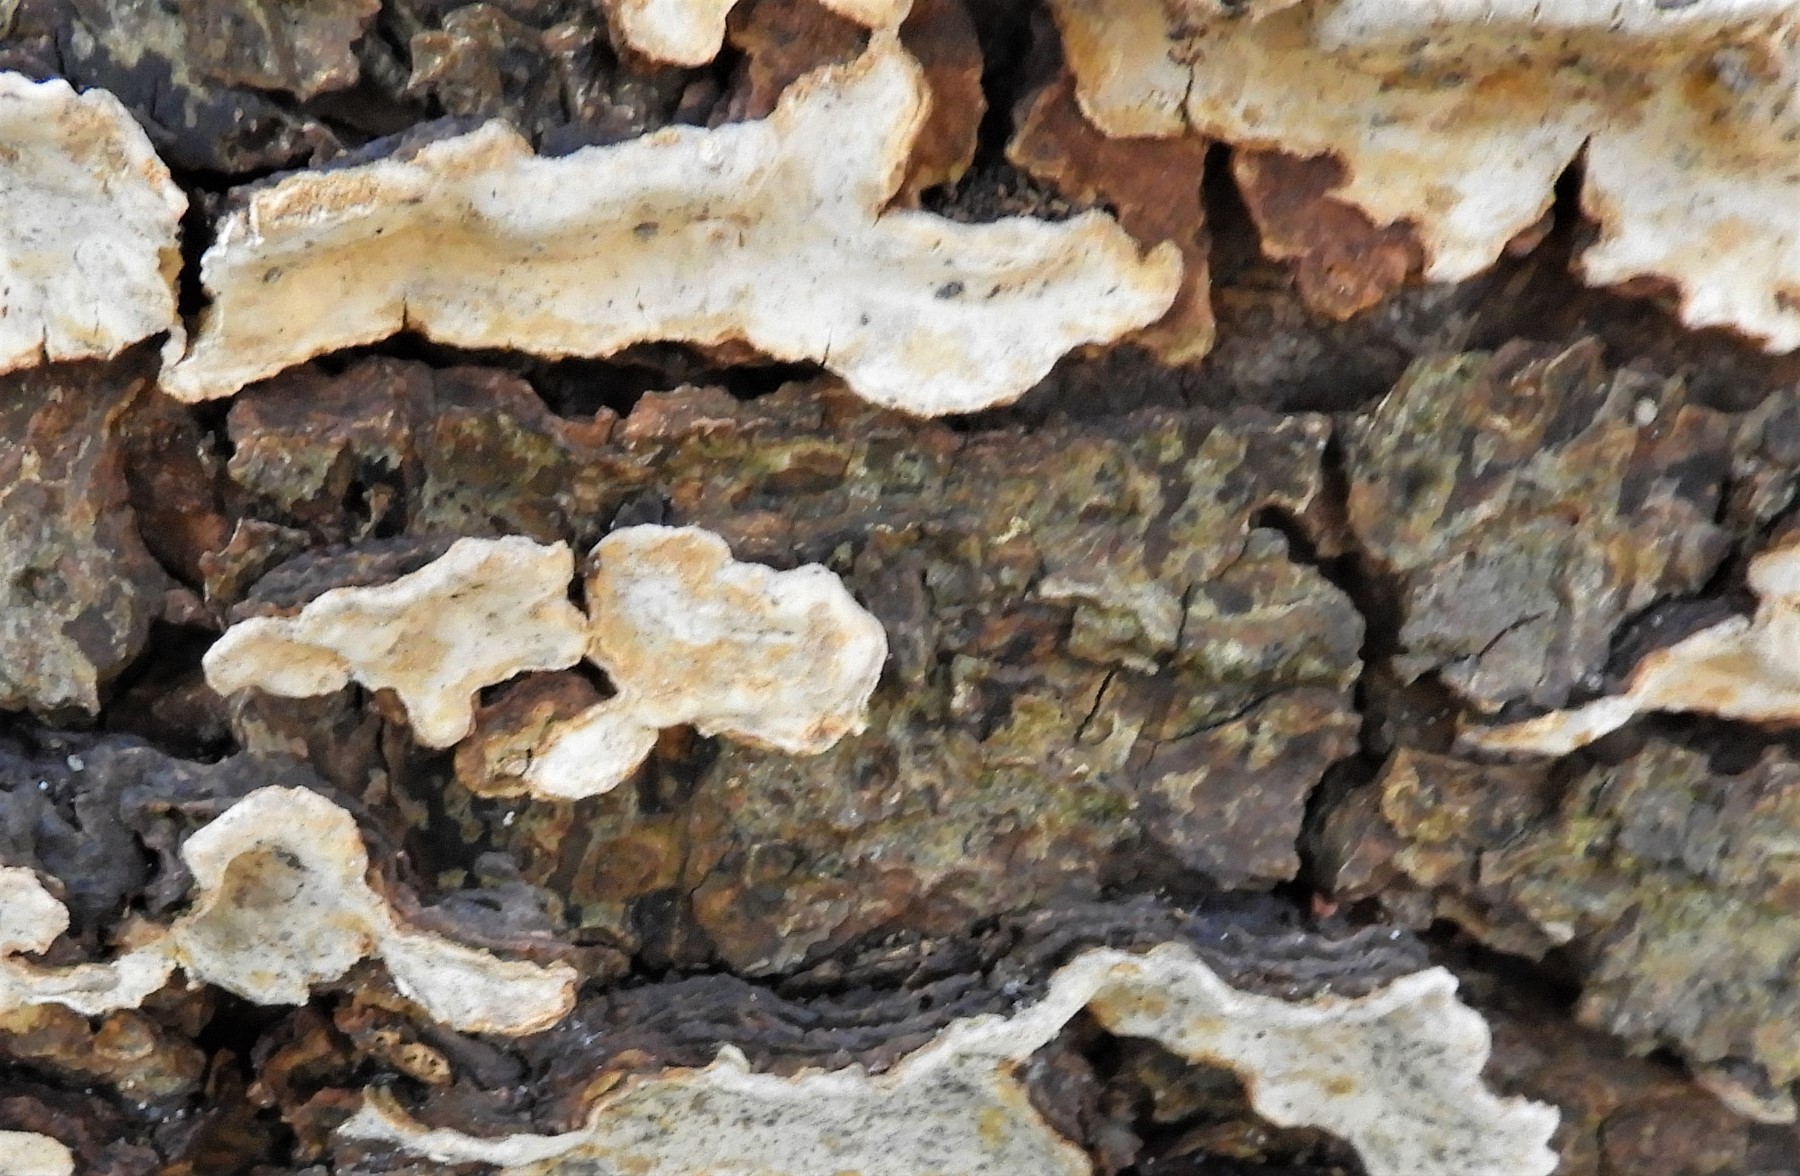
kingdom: Fungi
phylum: Basidiomycota
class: Agaricomycetes
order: Russulales
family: Stereaceae
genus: Stereum
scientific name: Stereum rugosum
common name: rynket lædersvamp
